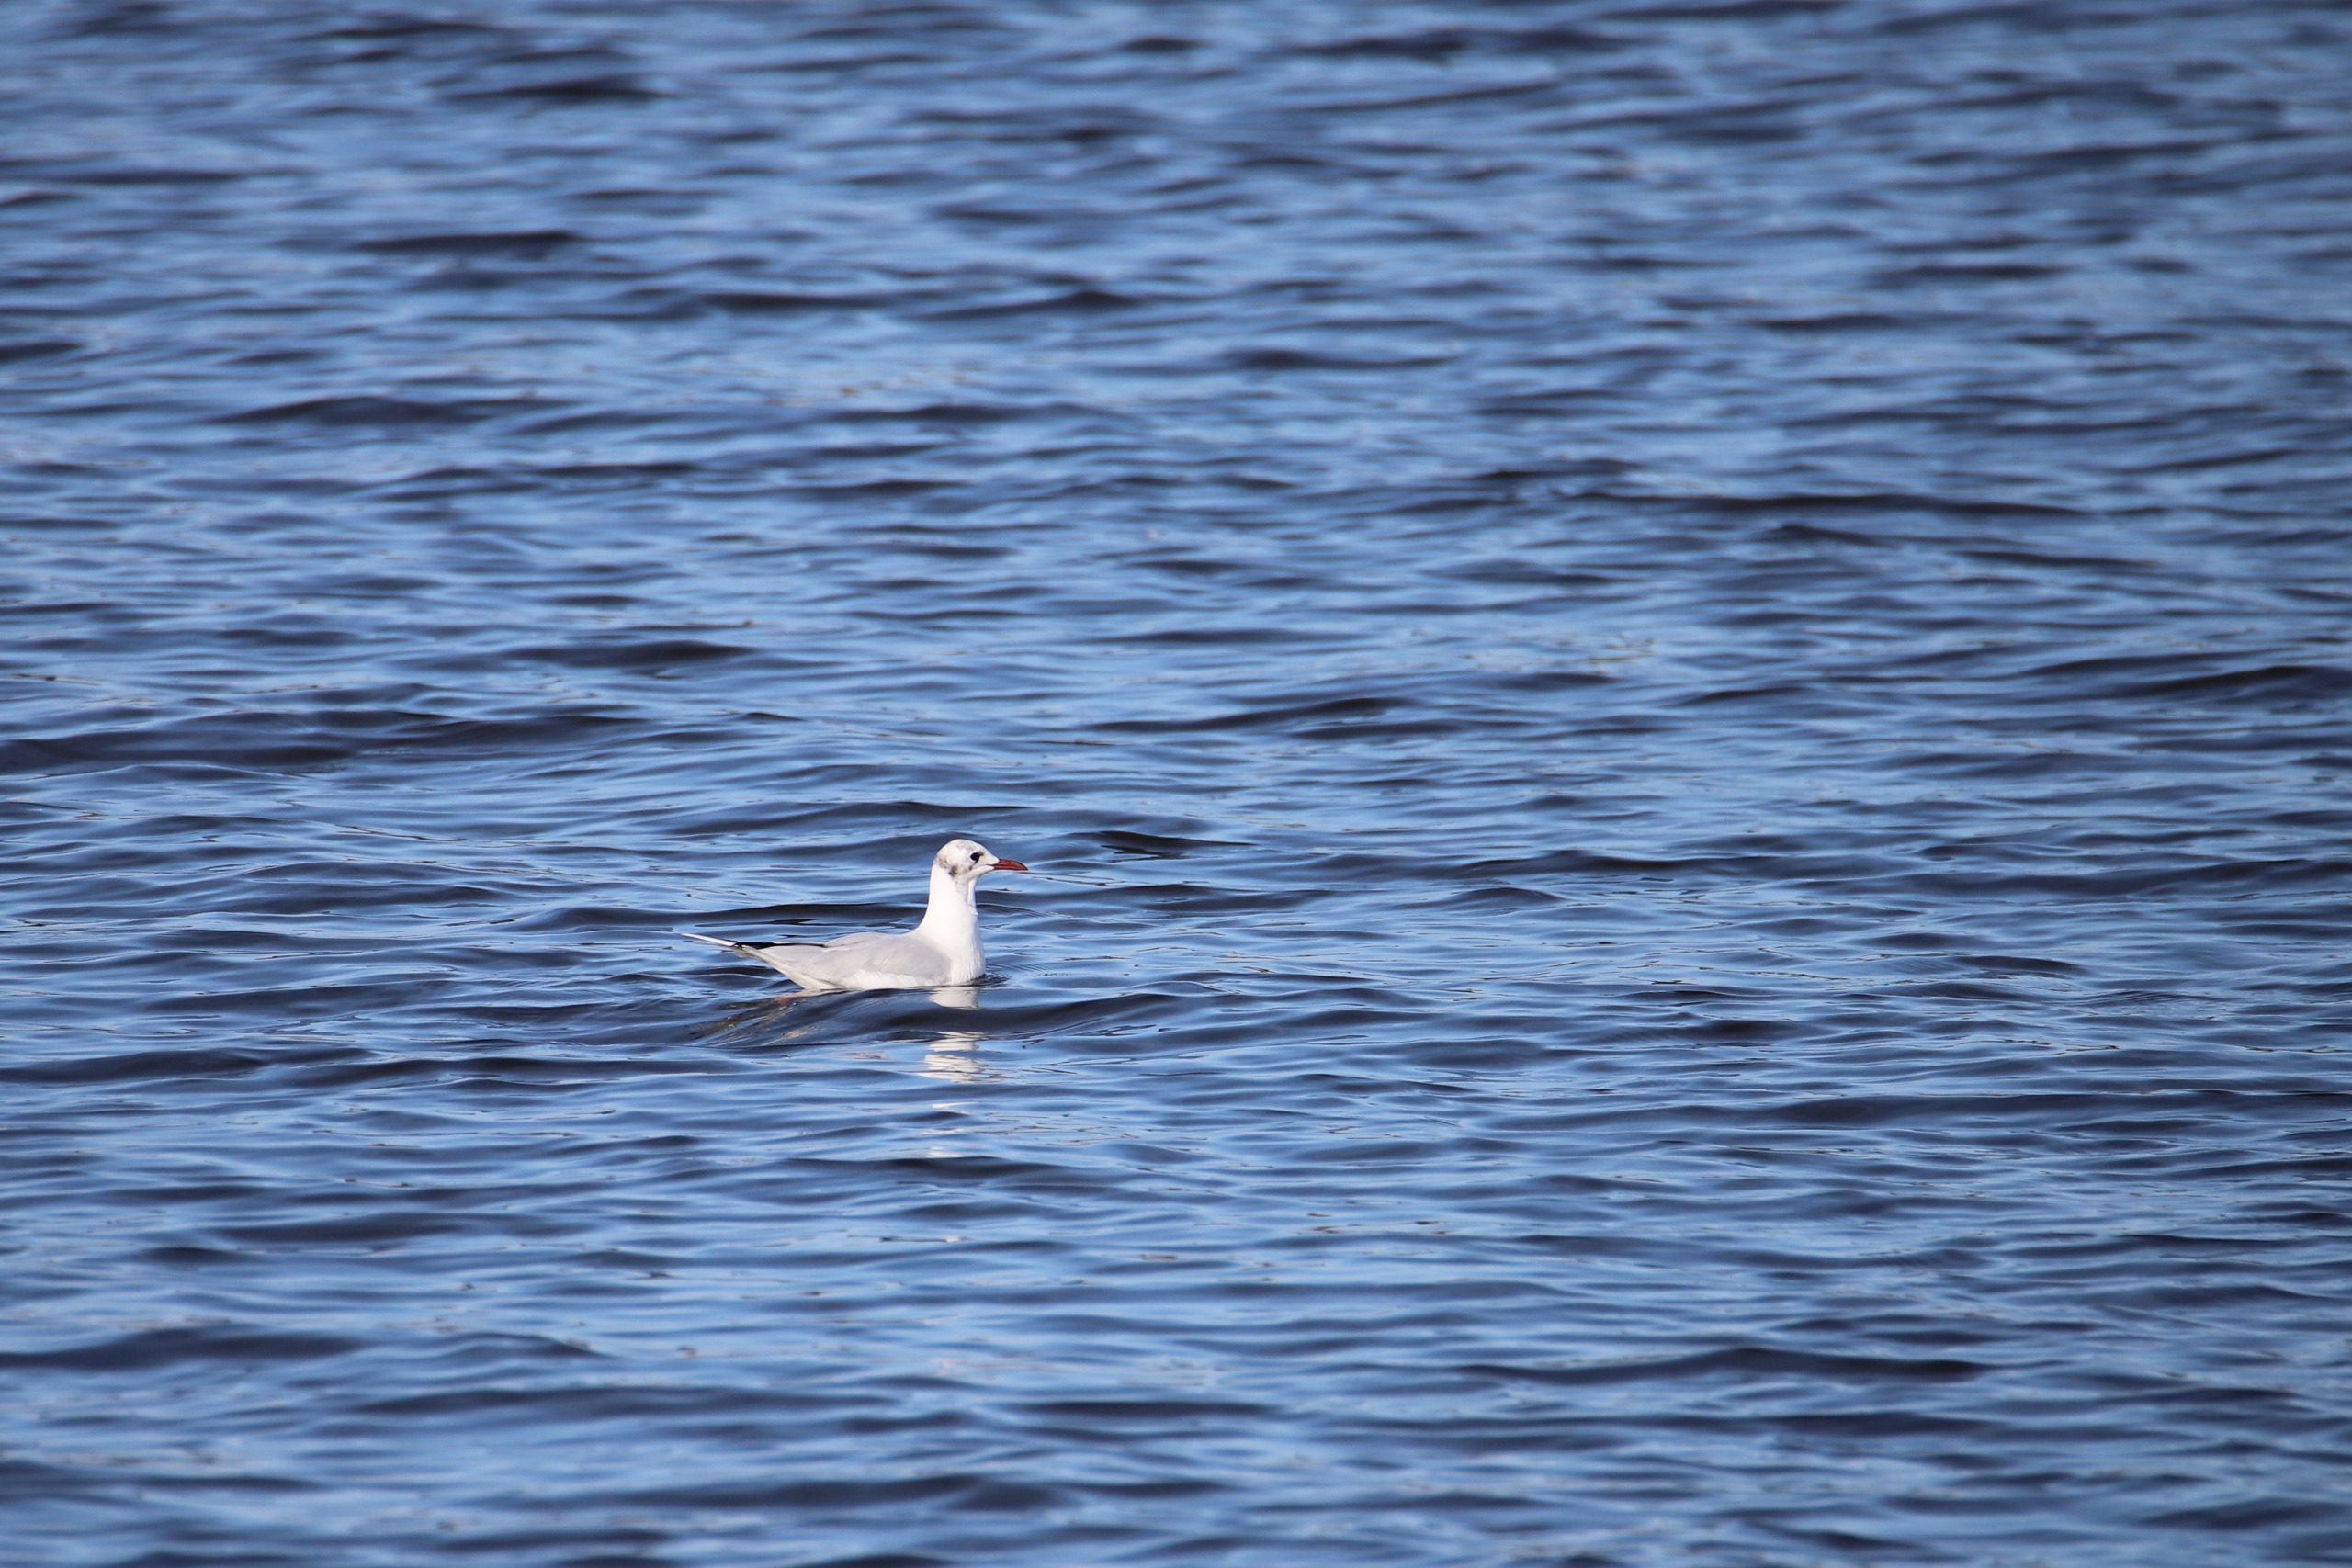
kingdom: Animalia
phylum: Chordata
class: Aves
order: Charadriiformes
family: Laridae
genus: Chroicocephalus
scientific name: Chroicocephalus ridibundus
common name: Hættemåge
